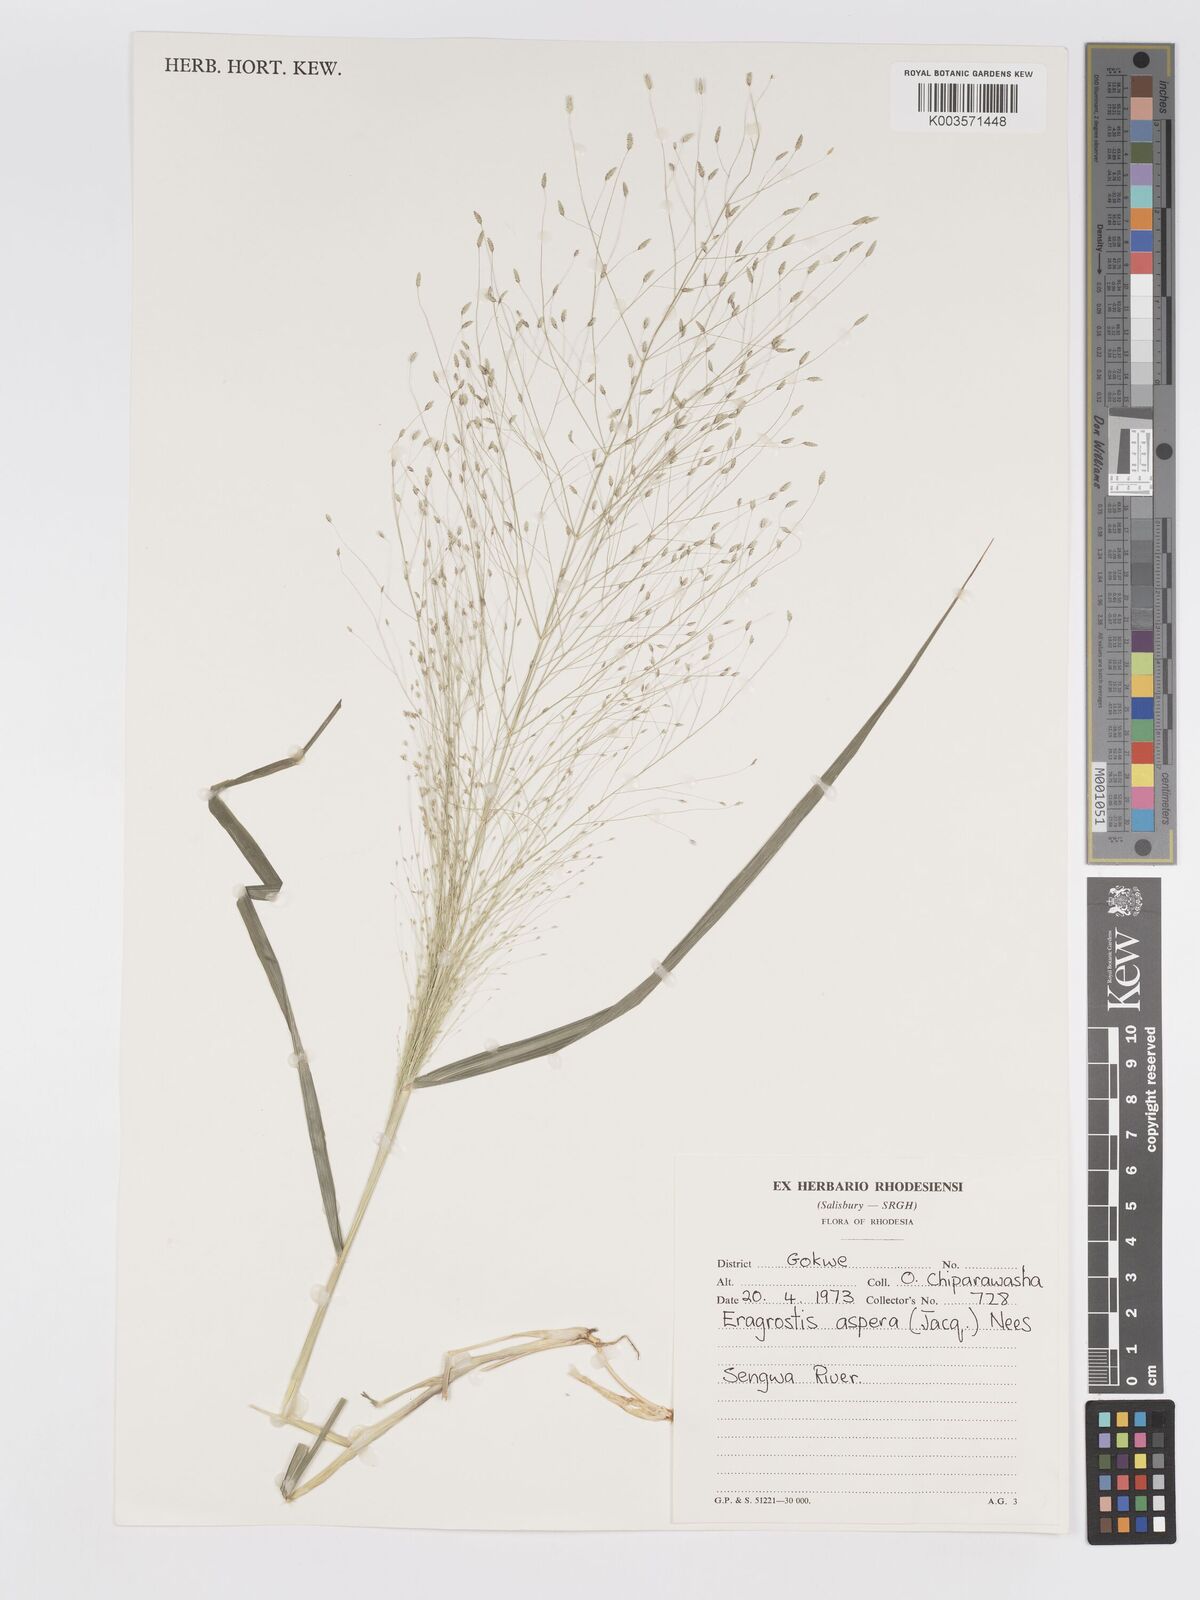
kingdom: Plantae
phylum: Tracheophyta
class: Liliopsida
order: Poales
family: Poaceae
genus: Eragrostis
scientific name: Eragrostis aspera
